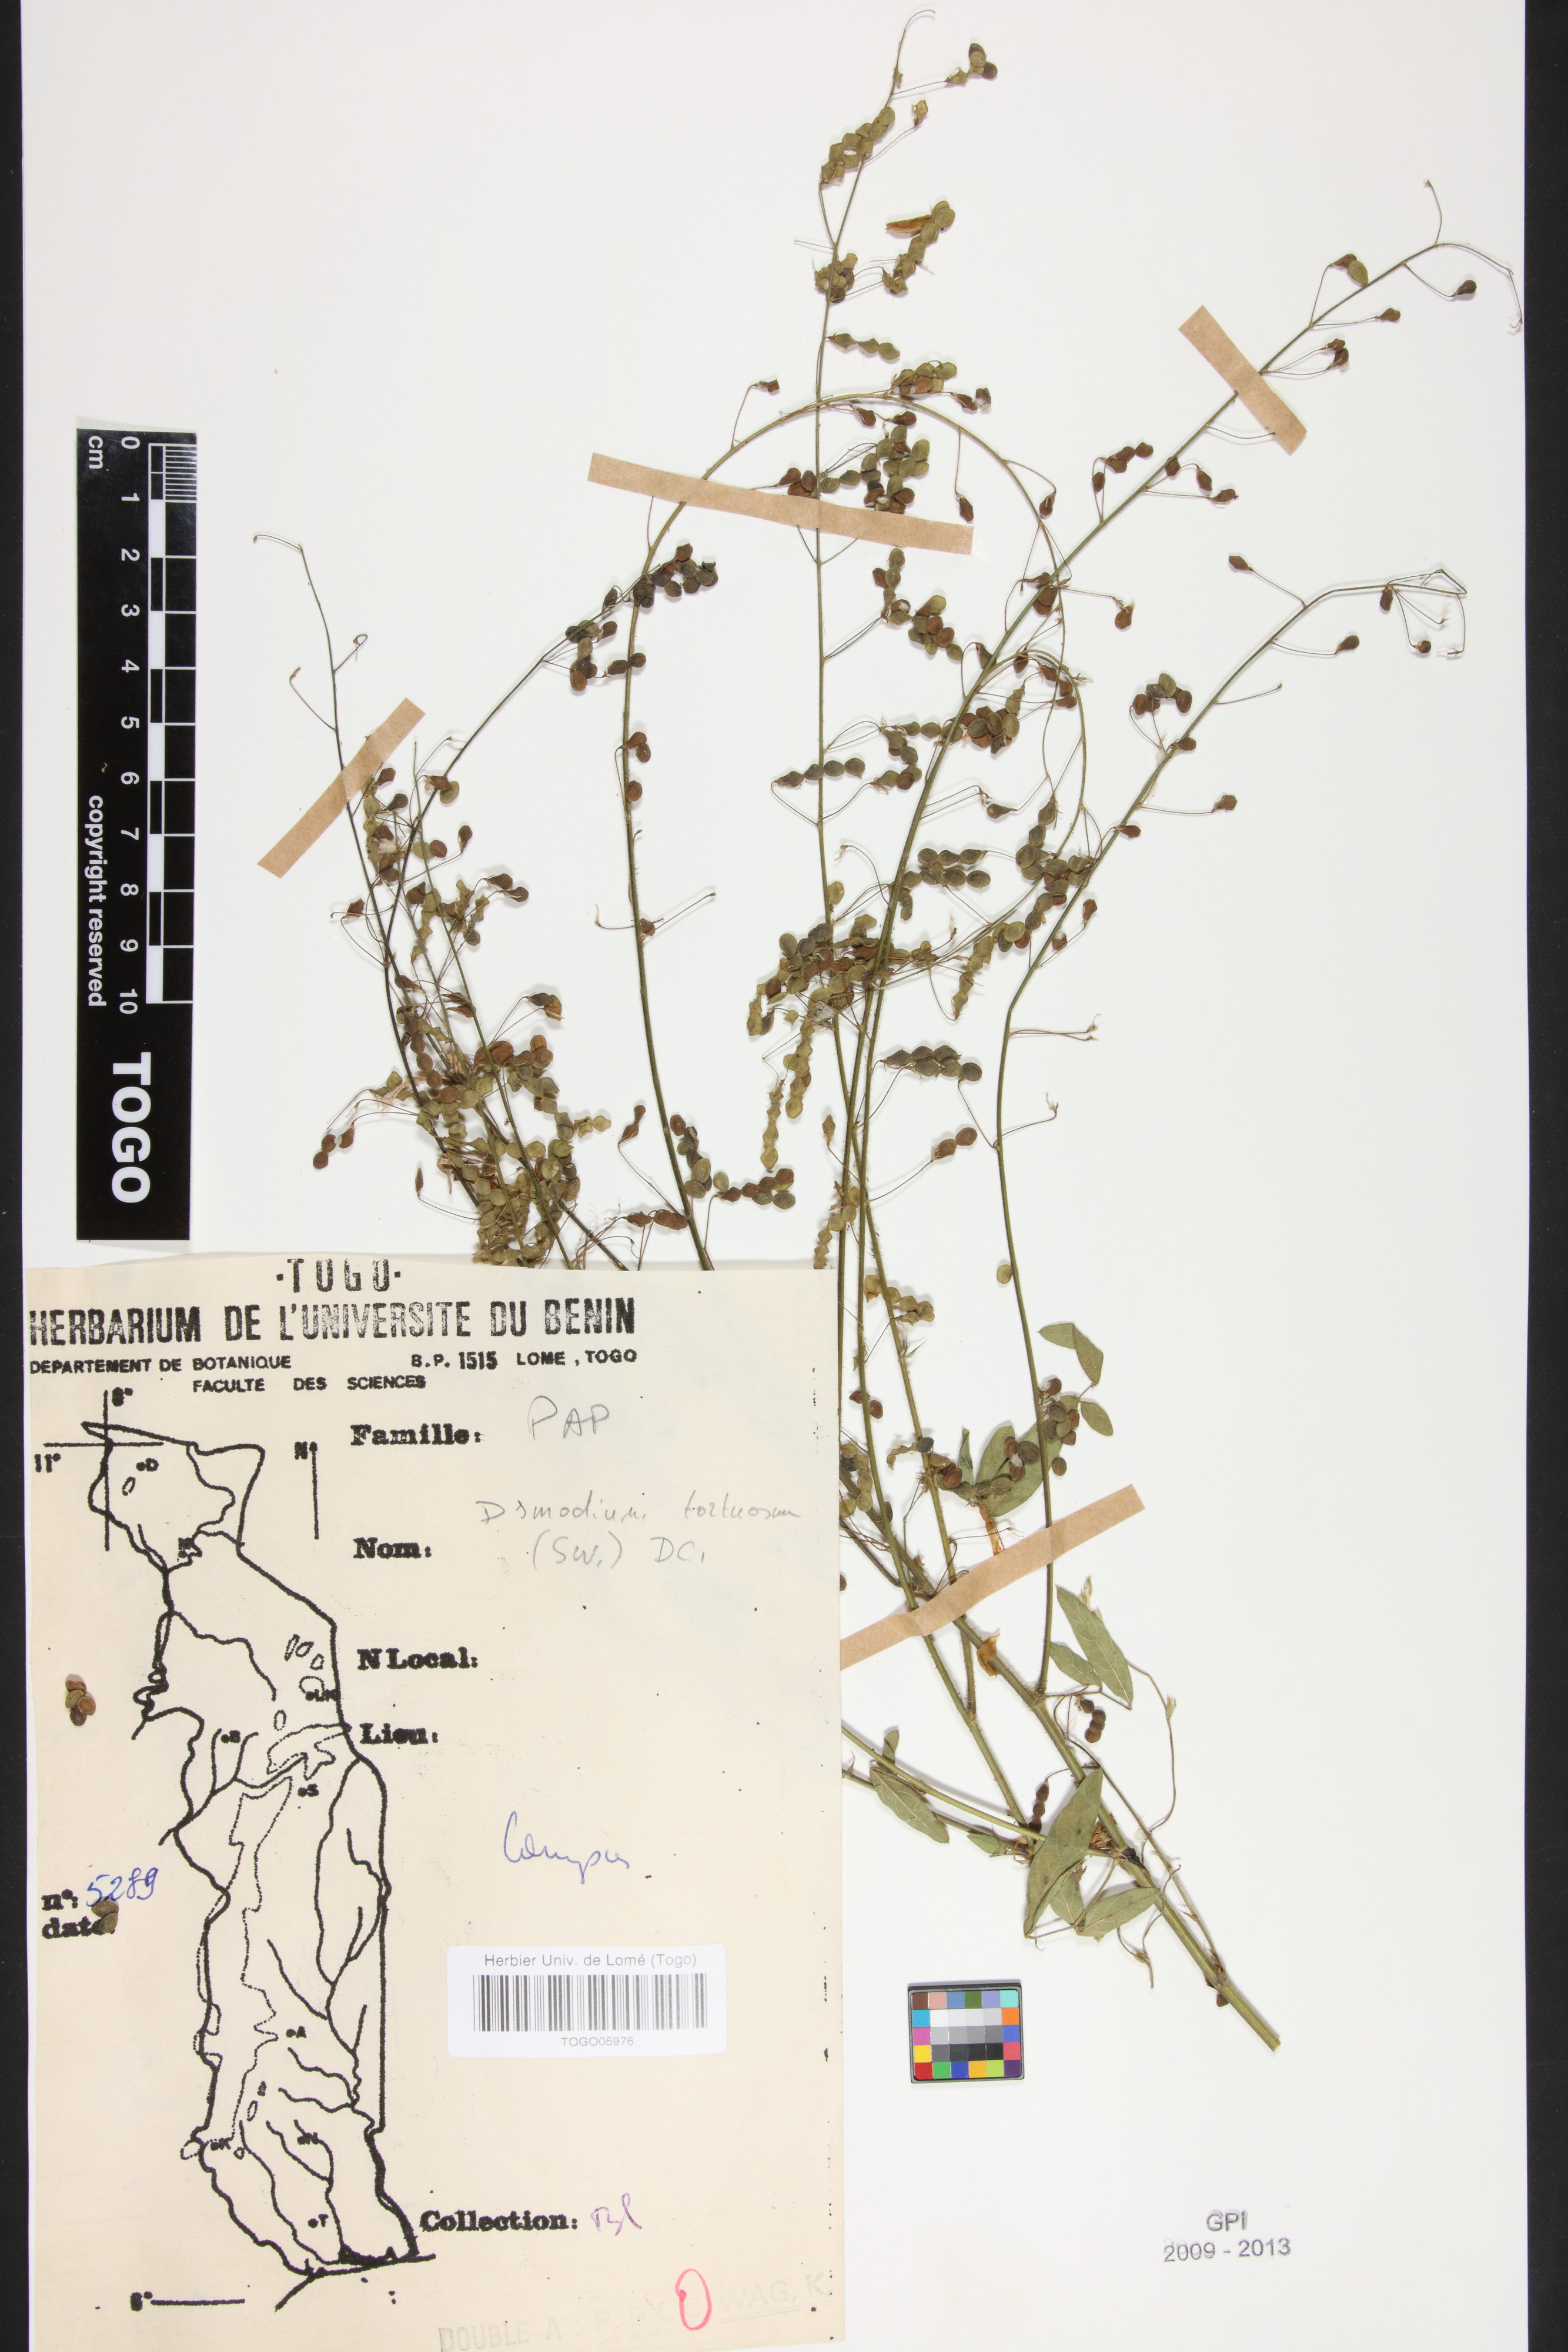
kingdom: Plantae
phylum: Tracheophyta
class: Magnoliopsida
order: Fabales
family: Fabaceae
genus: Desmodium
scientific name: Desmodium tortuosum
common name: Dixie ticktrefoil
